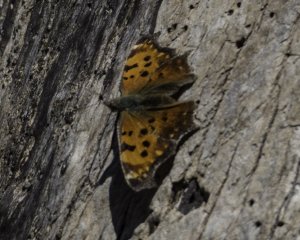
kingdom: Animalia
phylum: Arthropoda
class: Insecta
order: Lepidoptera
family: Nymphalidae
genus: Polygonia
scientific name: Polygonia comma
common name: Eastern Comma
